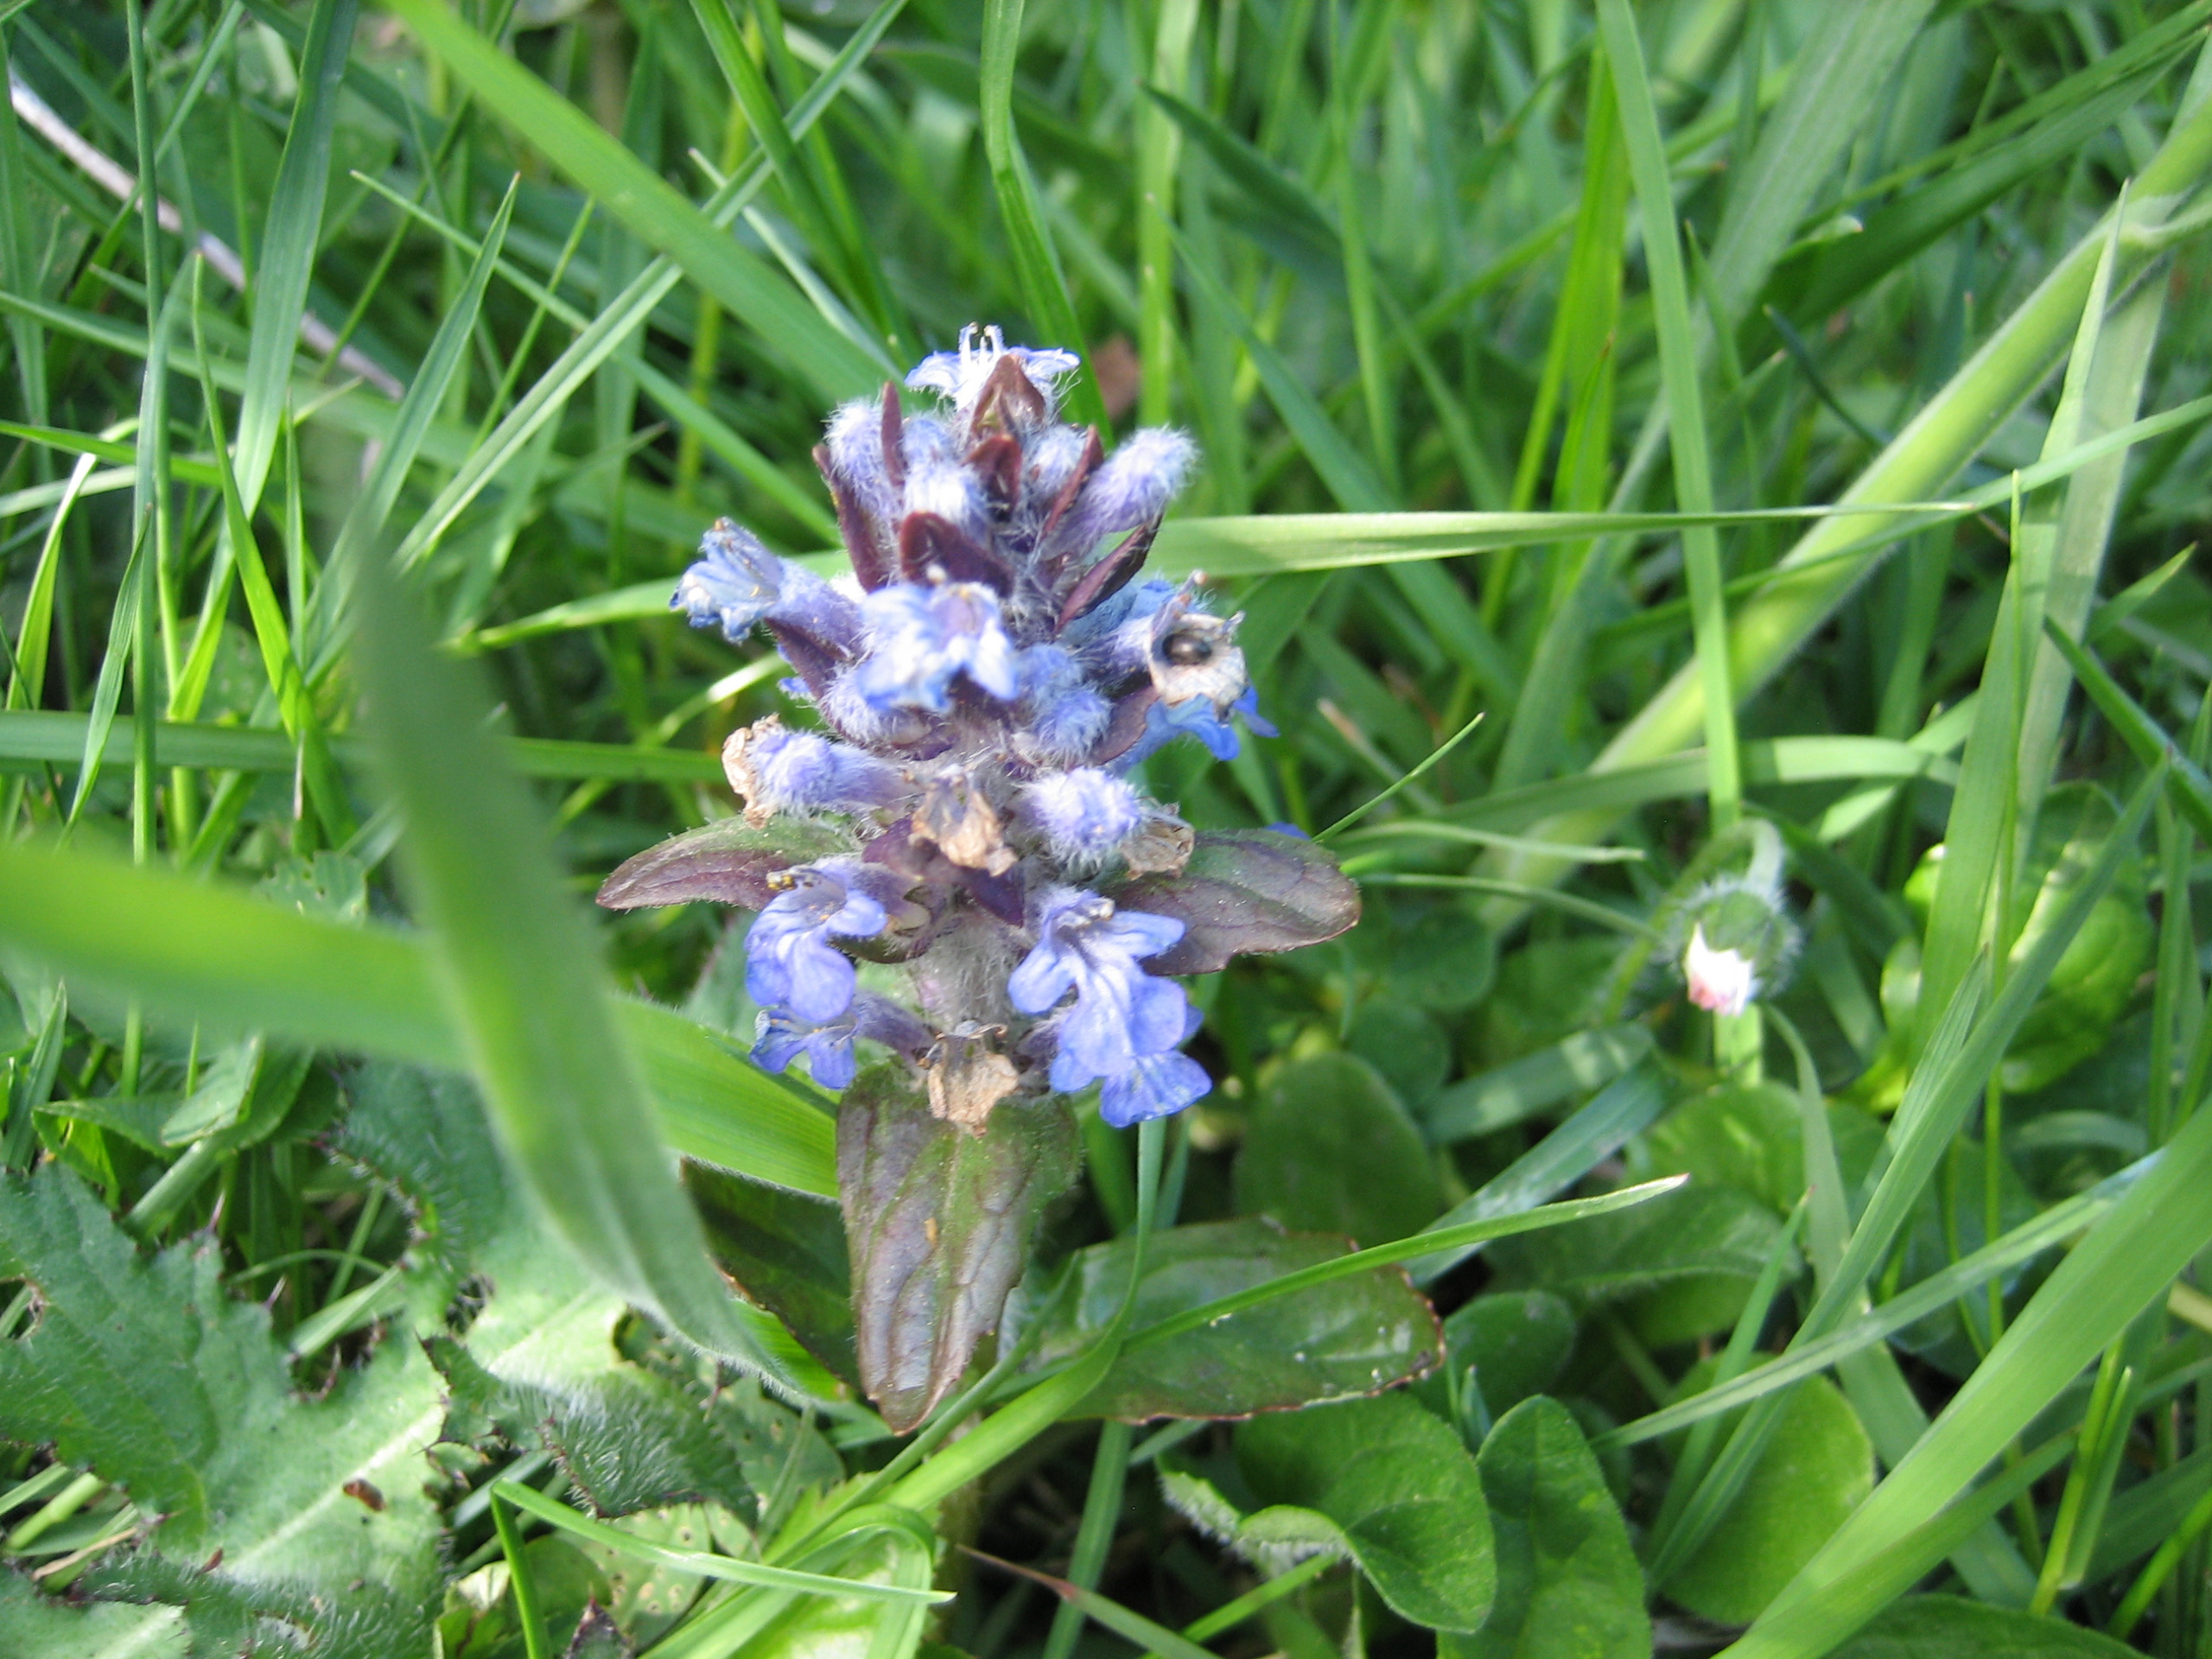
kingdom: Plantae
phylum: Tracheophyta
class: Magnoliopsida
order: Lamiales
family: Lamiaceae
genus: Ajuga
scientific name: Ajuga reptans
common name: Krybende læbeløs
